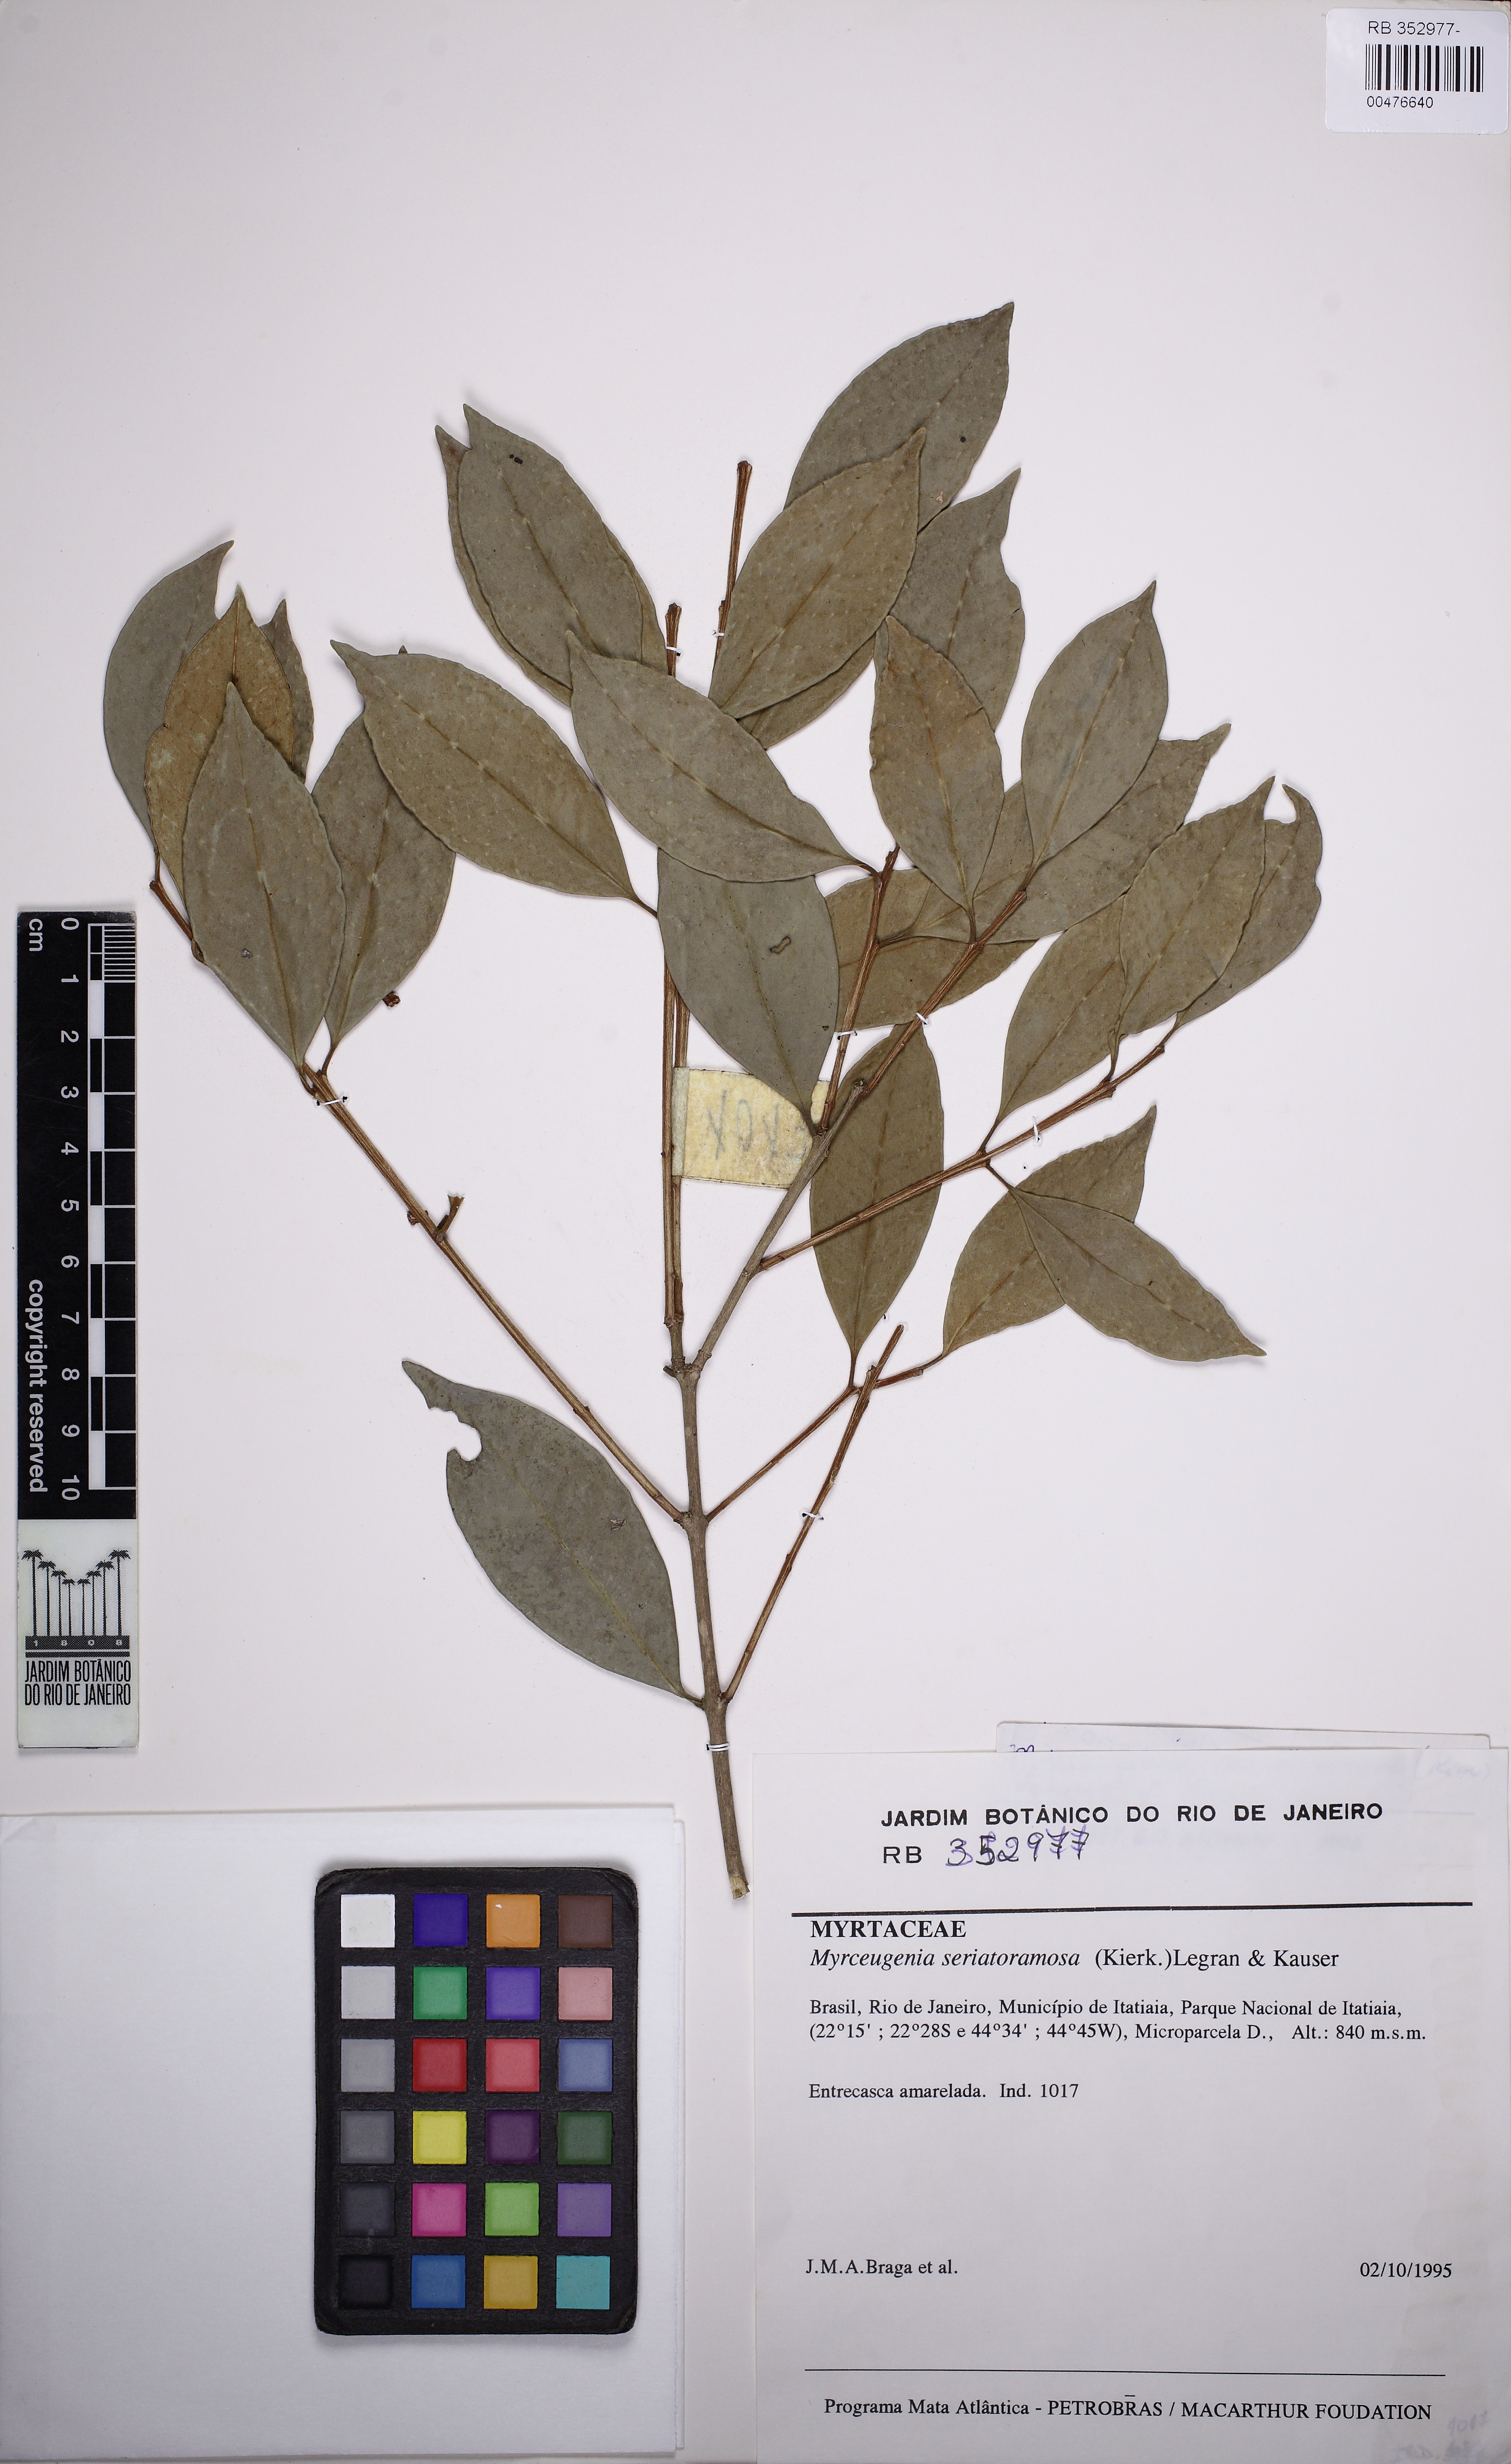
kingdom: Plantae
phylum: Tracheophyta
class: Magnoliopsida
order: Myrtales
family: Myrtaceae
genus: Eugenia
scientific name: Eugenia
